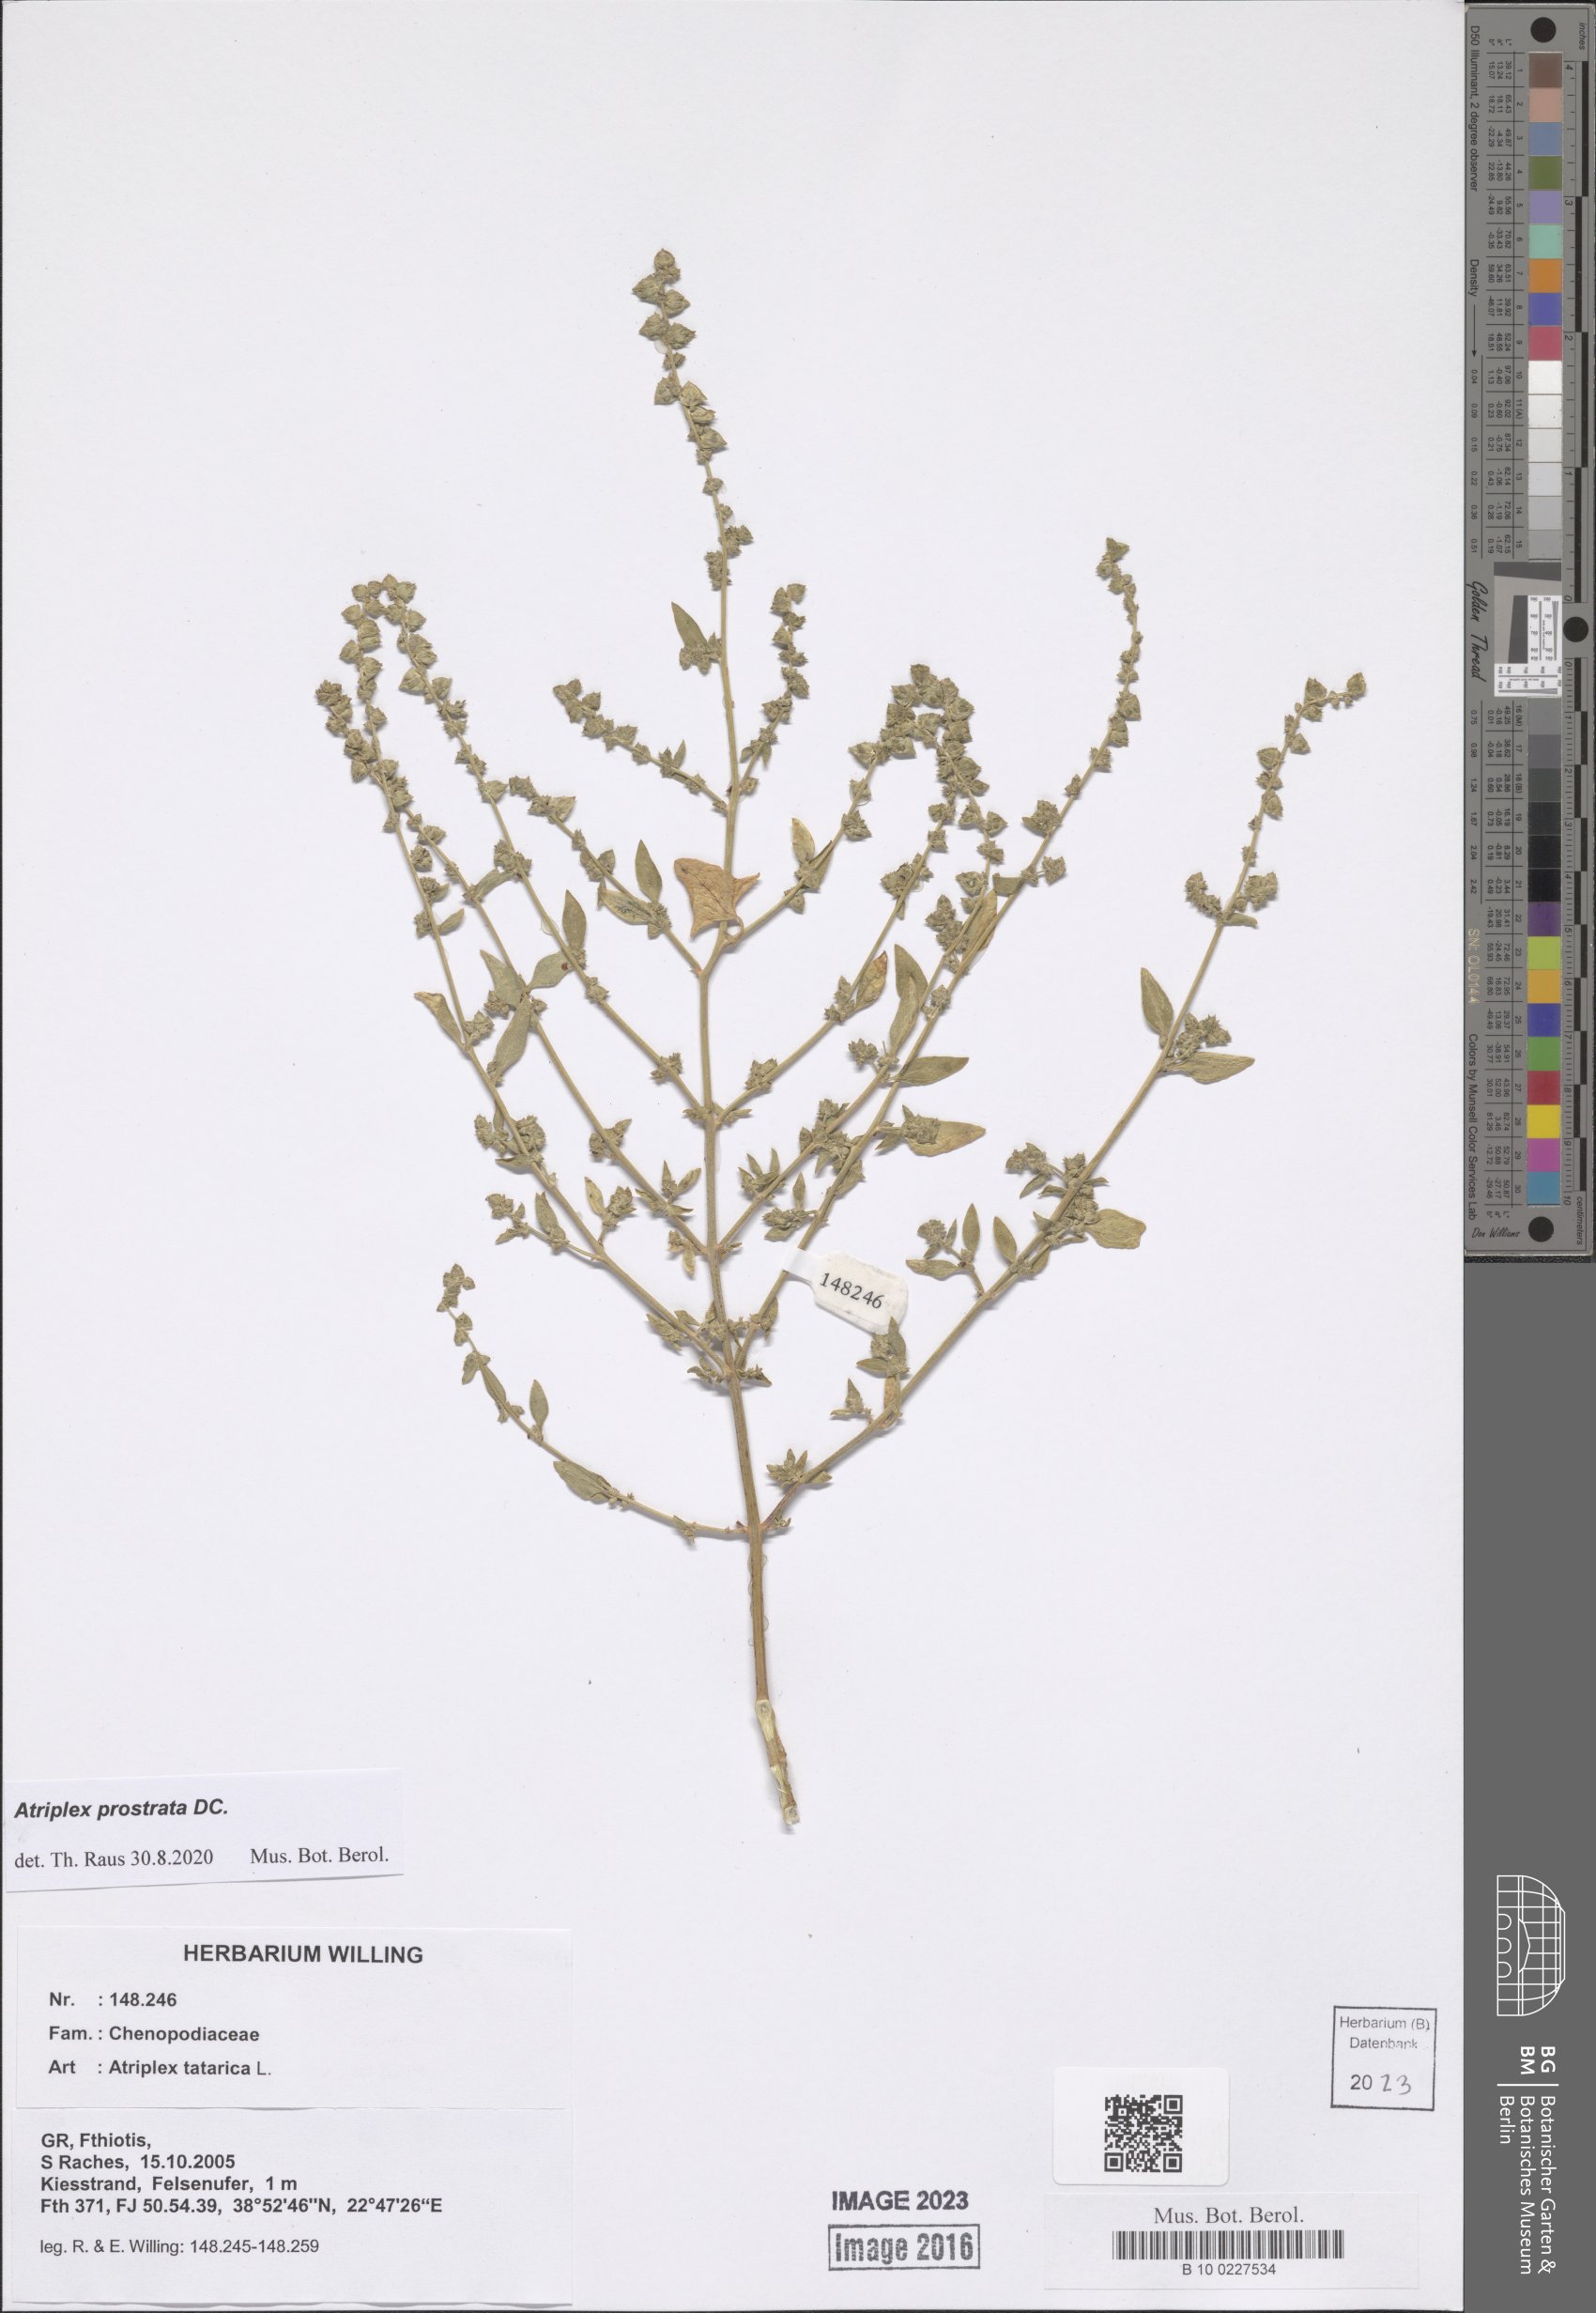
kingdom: Plantae
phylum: Tracheophyta
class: Magnoliopsida
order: Caryophyllales
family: Amaranthaceae
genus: Atriplex
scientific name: Atriplex prostrata
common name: Spear-leaved orache
